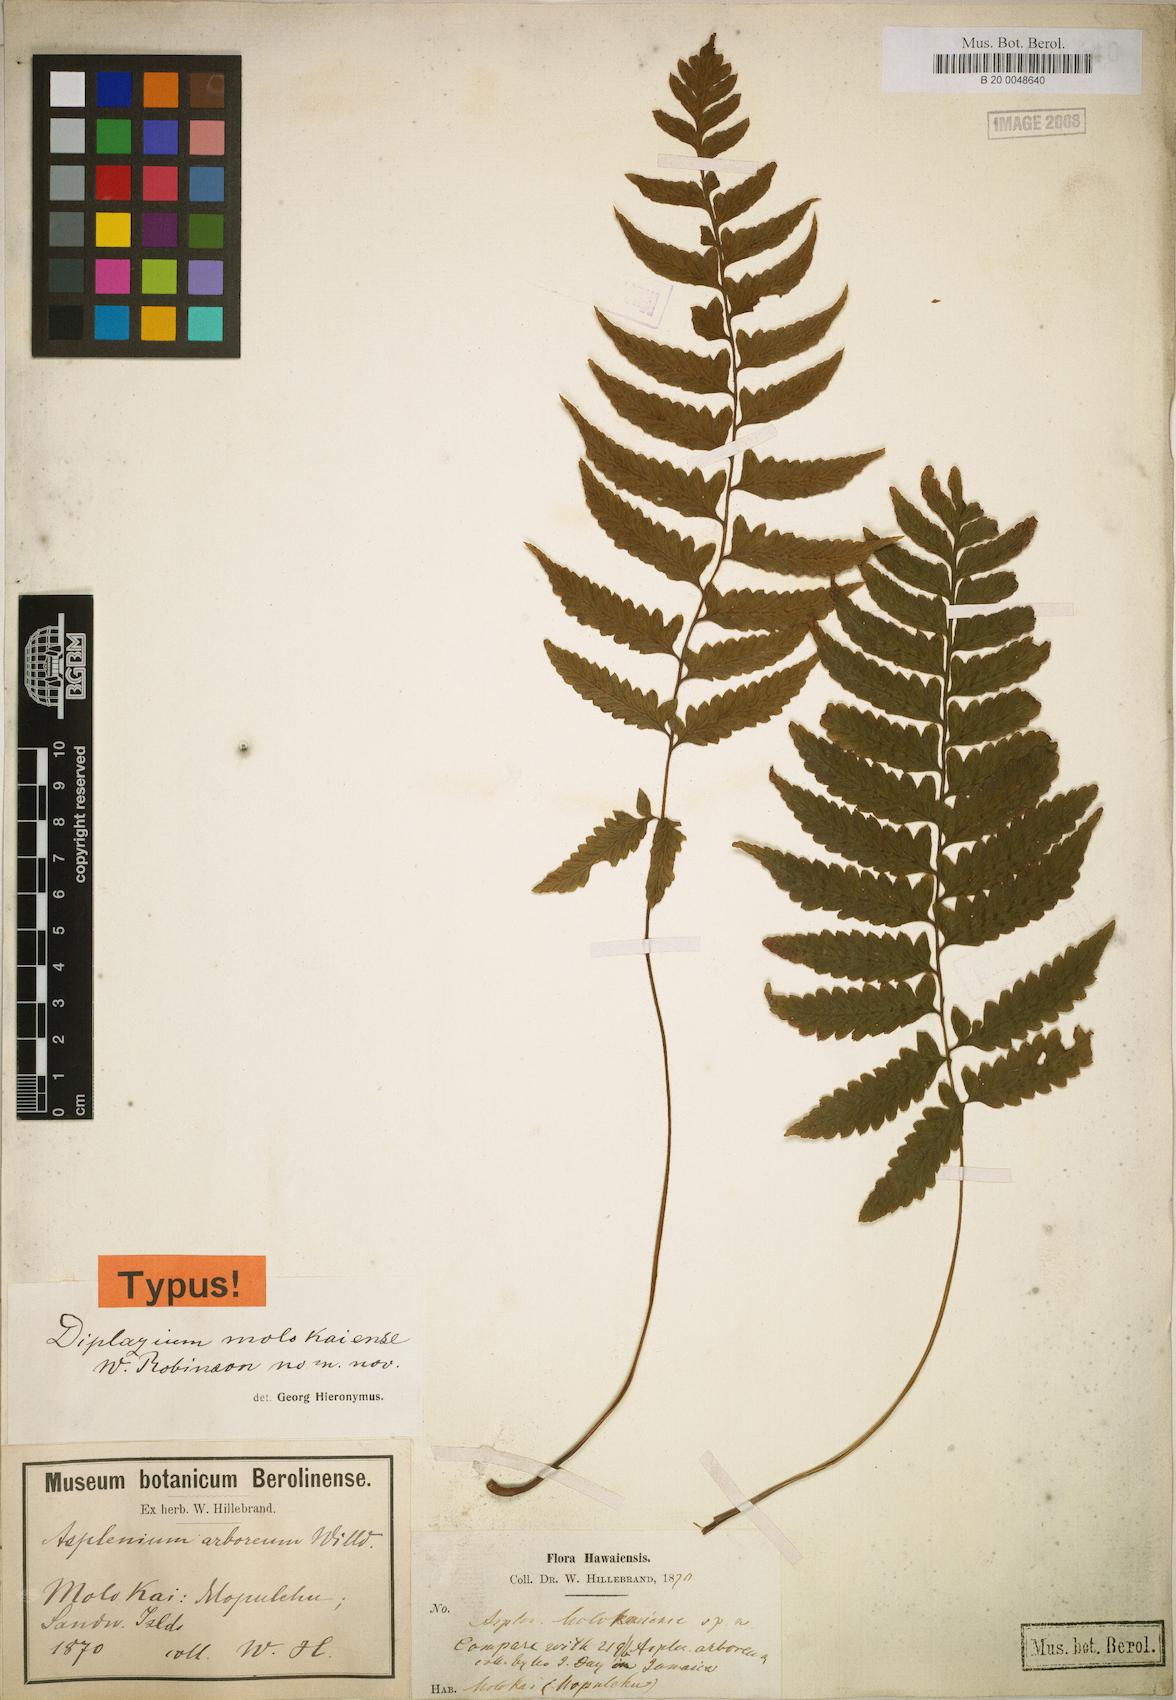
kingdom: Plantae
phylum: Tracheophyta
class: Polypodiopsida
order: Polypodiales
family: Athyriaceae
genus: Diplazium
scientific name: Diplazium molokaiense
